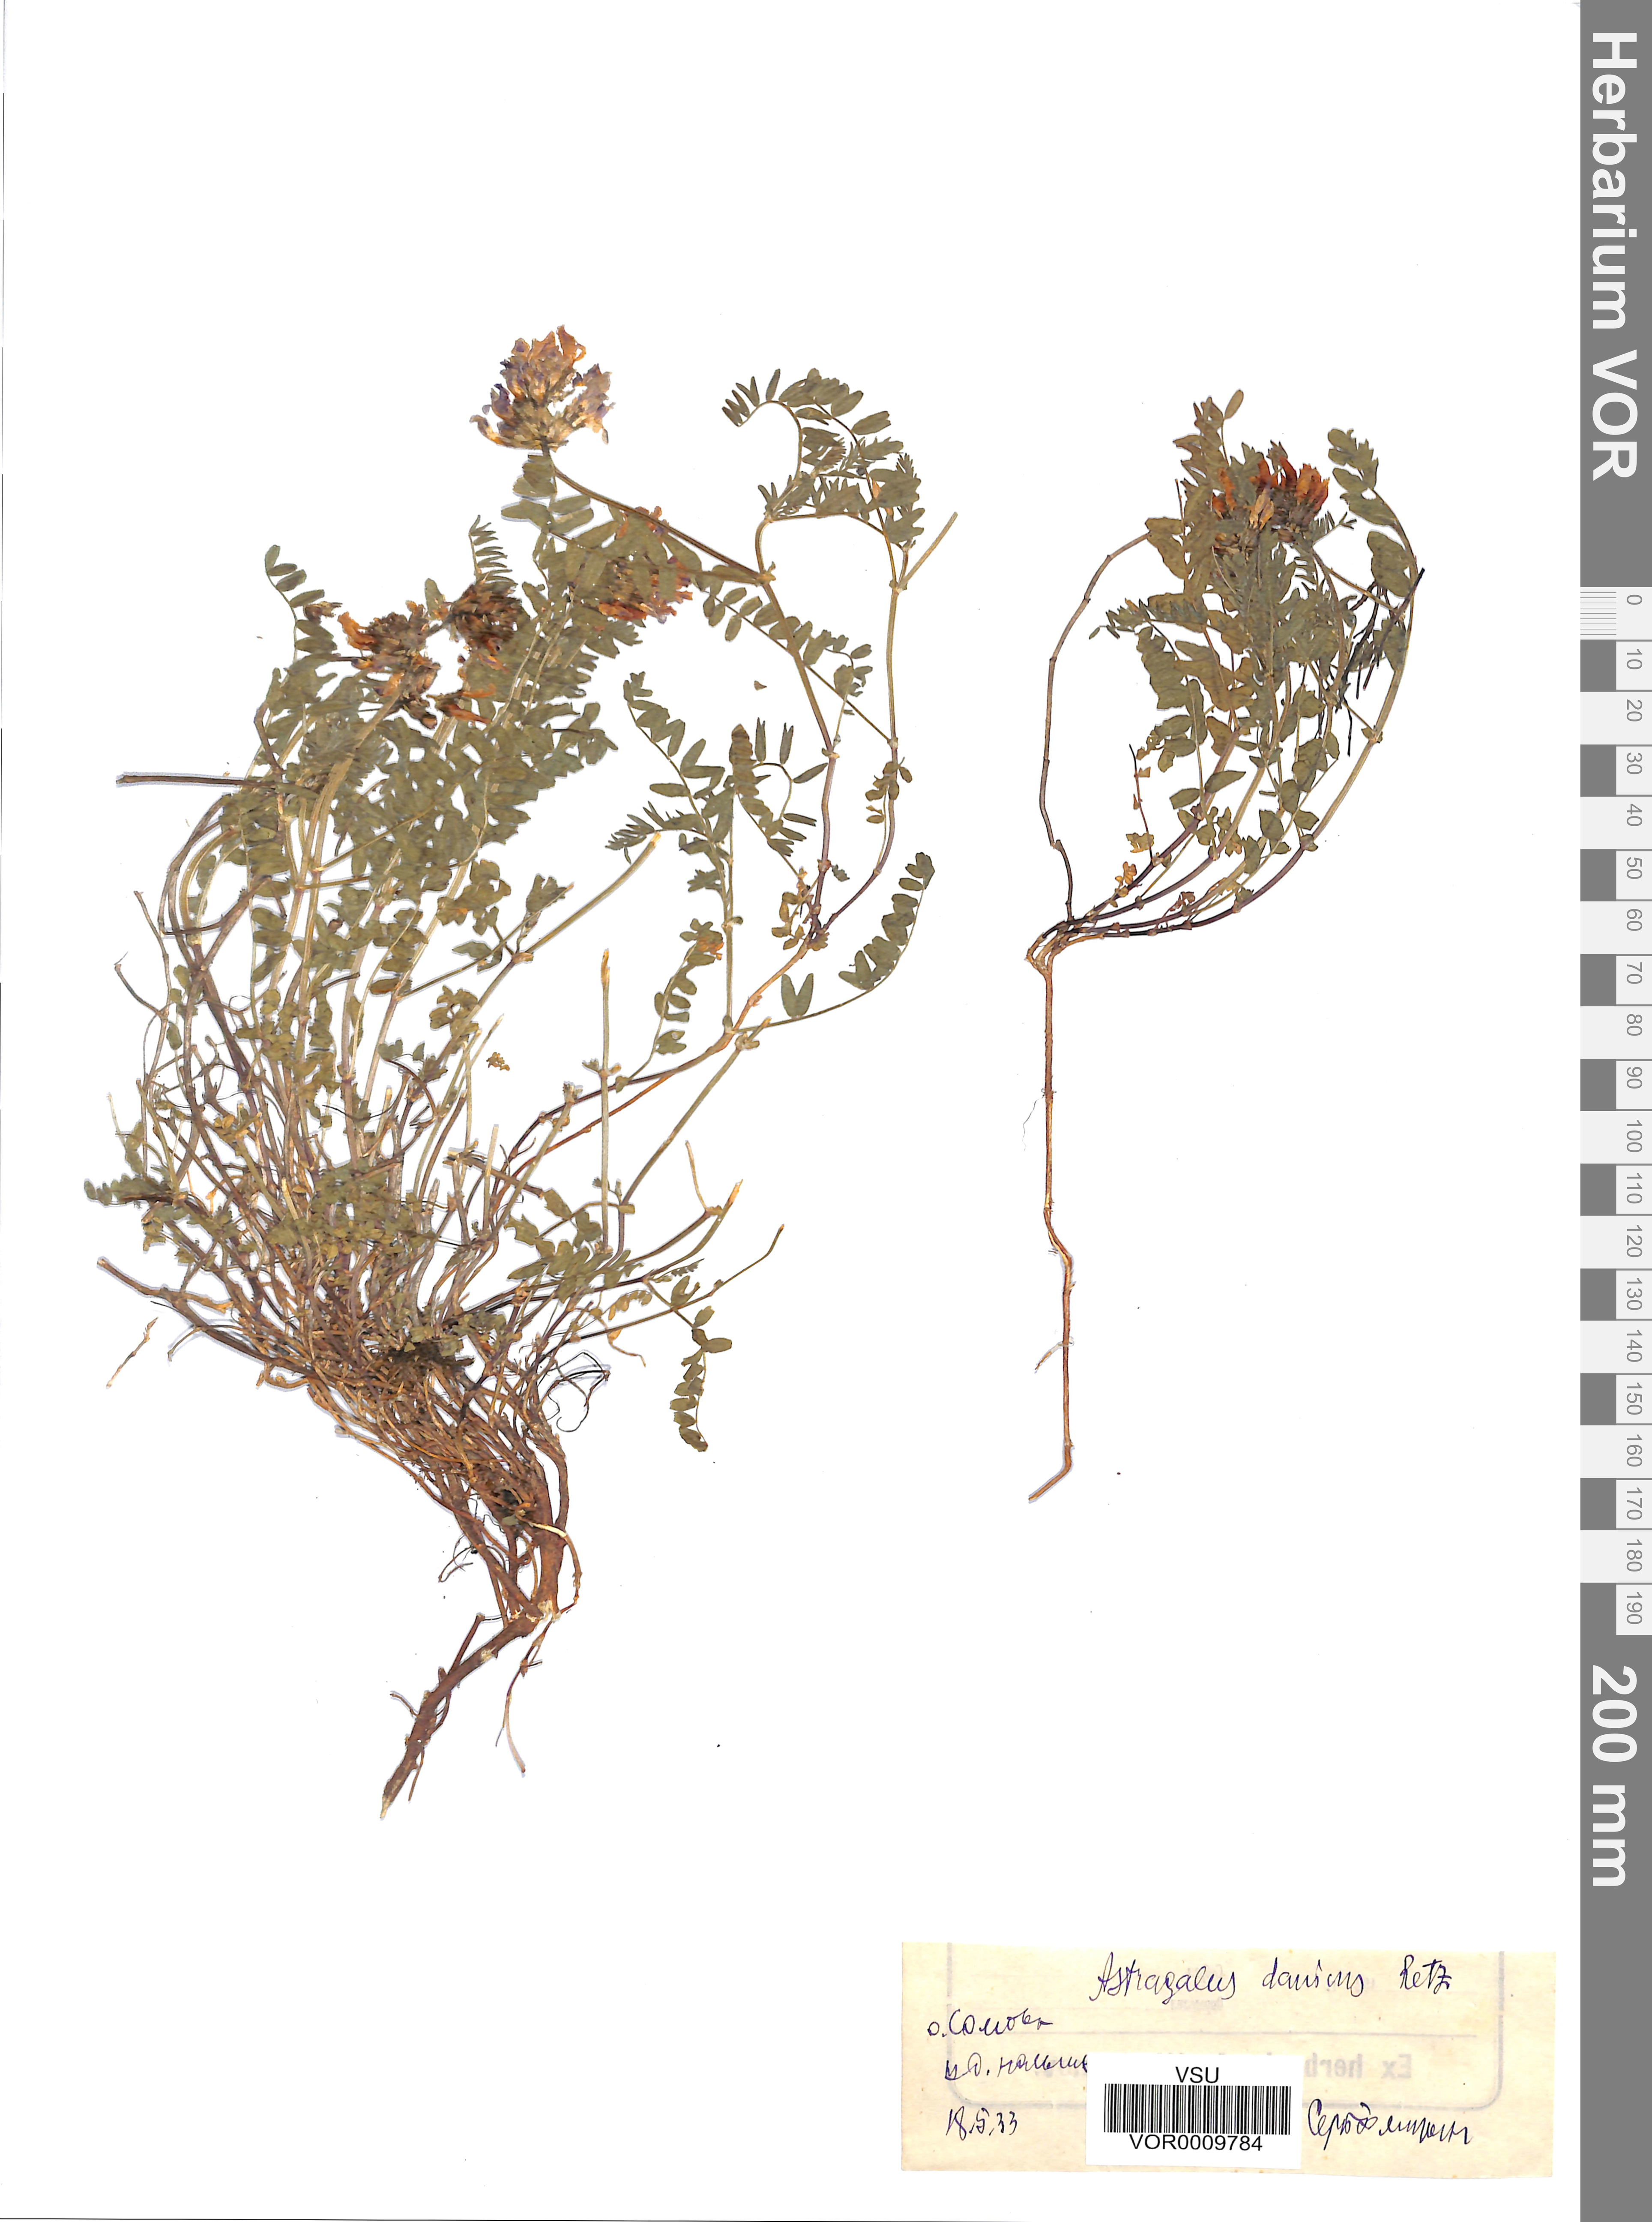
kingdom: Plantae
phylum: Tracheophyta
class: Magnoliopsida
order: Fabales
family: Fabaceae
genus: Astragalus
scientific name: Astragalus danicus
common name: Purple milk-vetch
